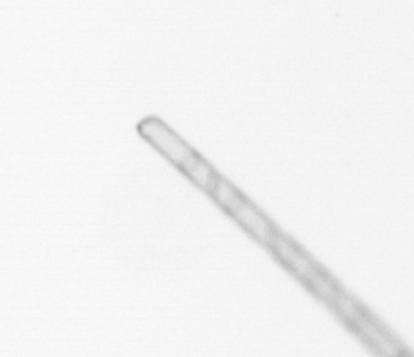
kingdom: Chromista
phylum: Ochrophyta
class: Bacillariophyceae
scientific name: Bacillariophyceae
